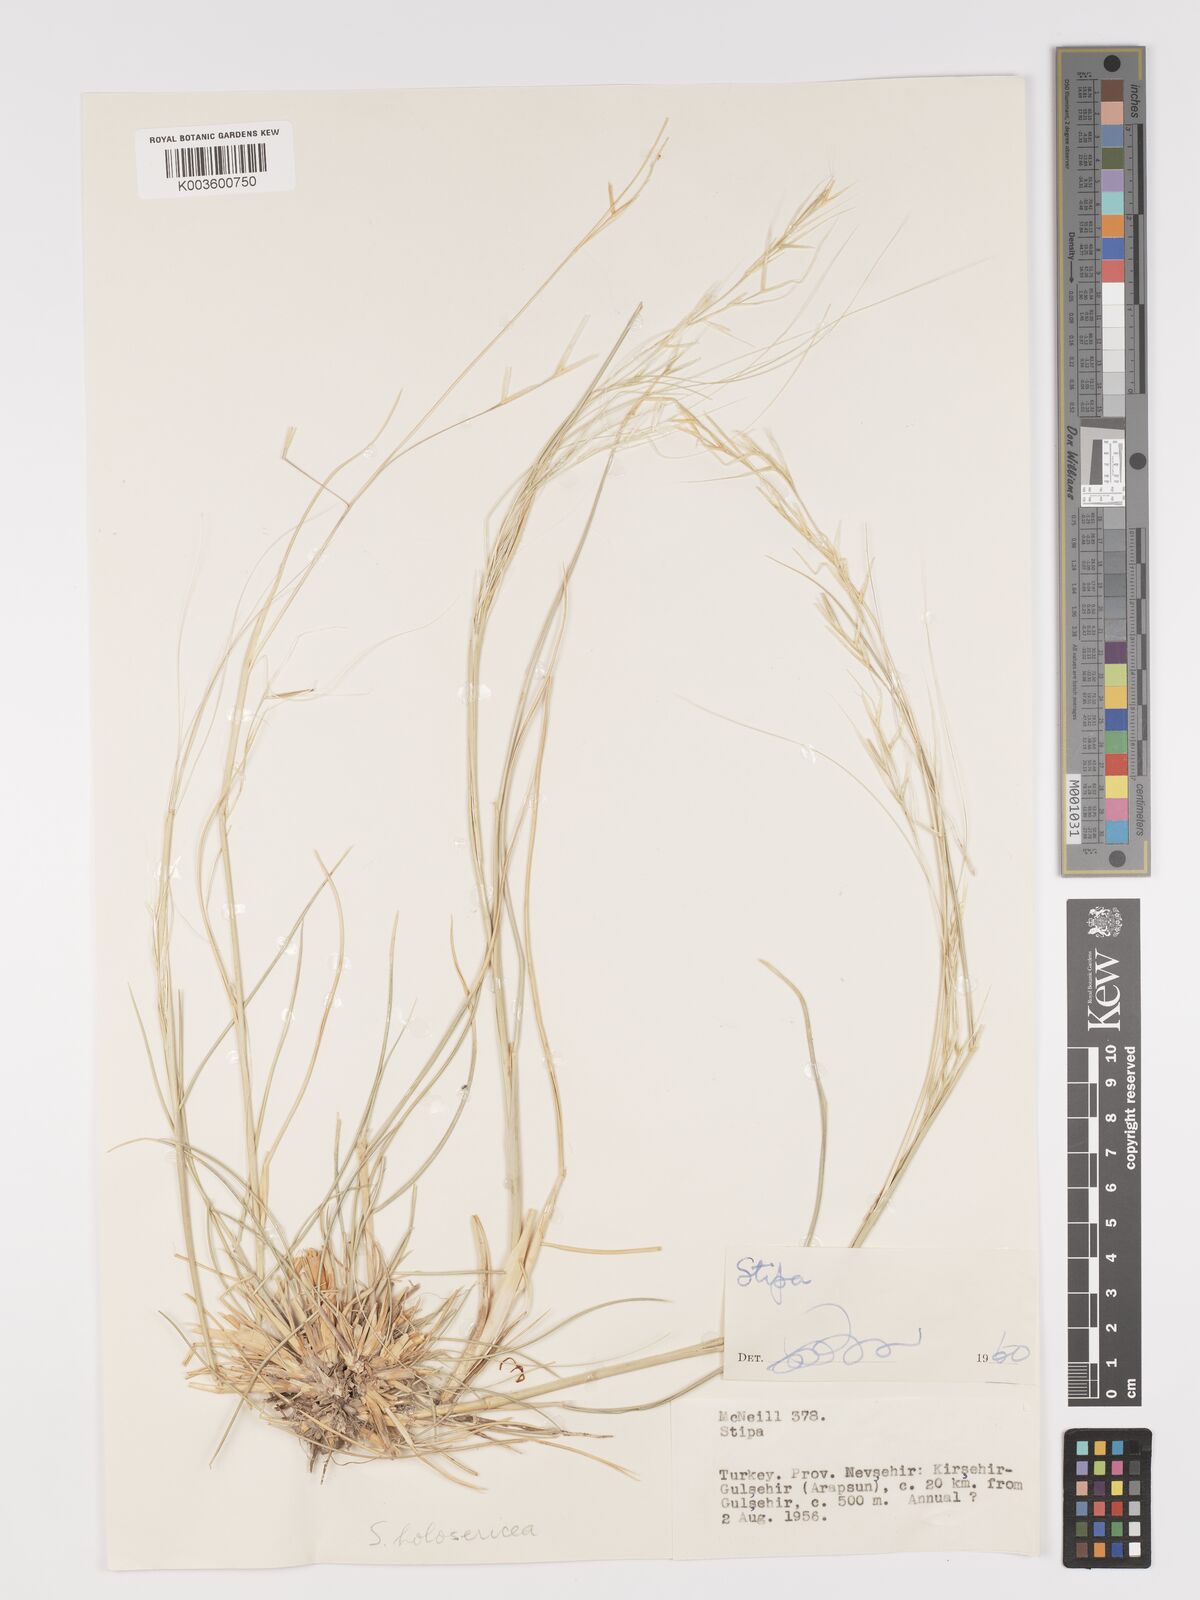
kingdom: Plantae
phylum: Tracheophyta
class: Liliopsida
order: Poales
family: Poaceae
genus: Stipa
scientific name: Stipa lagascae
